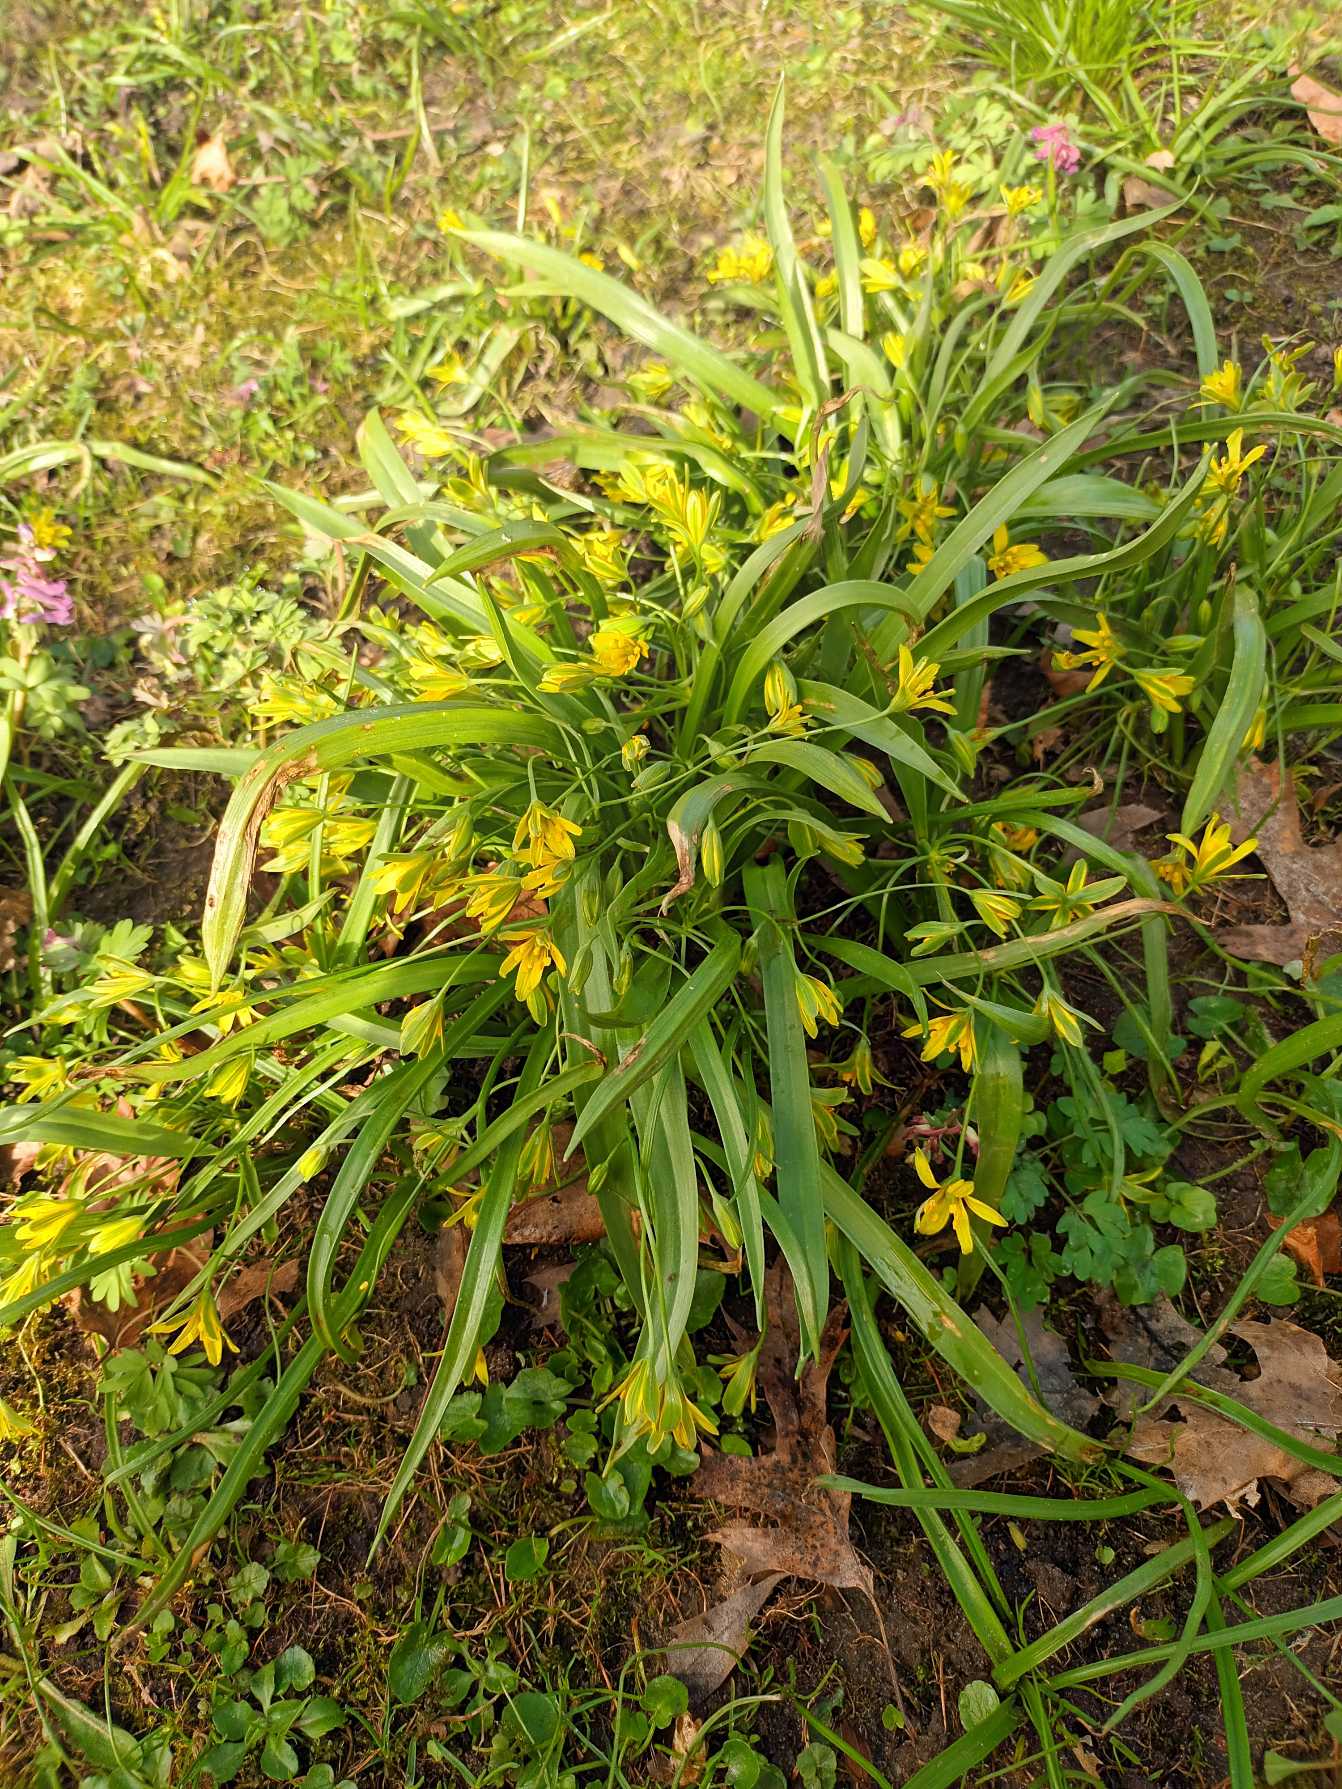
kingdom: Plantae
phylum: Tracheophyta
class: Liliopsida
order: Liliales
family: Liliaceae
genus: Gagea
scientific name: Gagea lutea
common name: Almindelig guldstjerne
